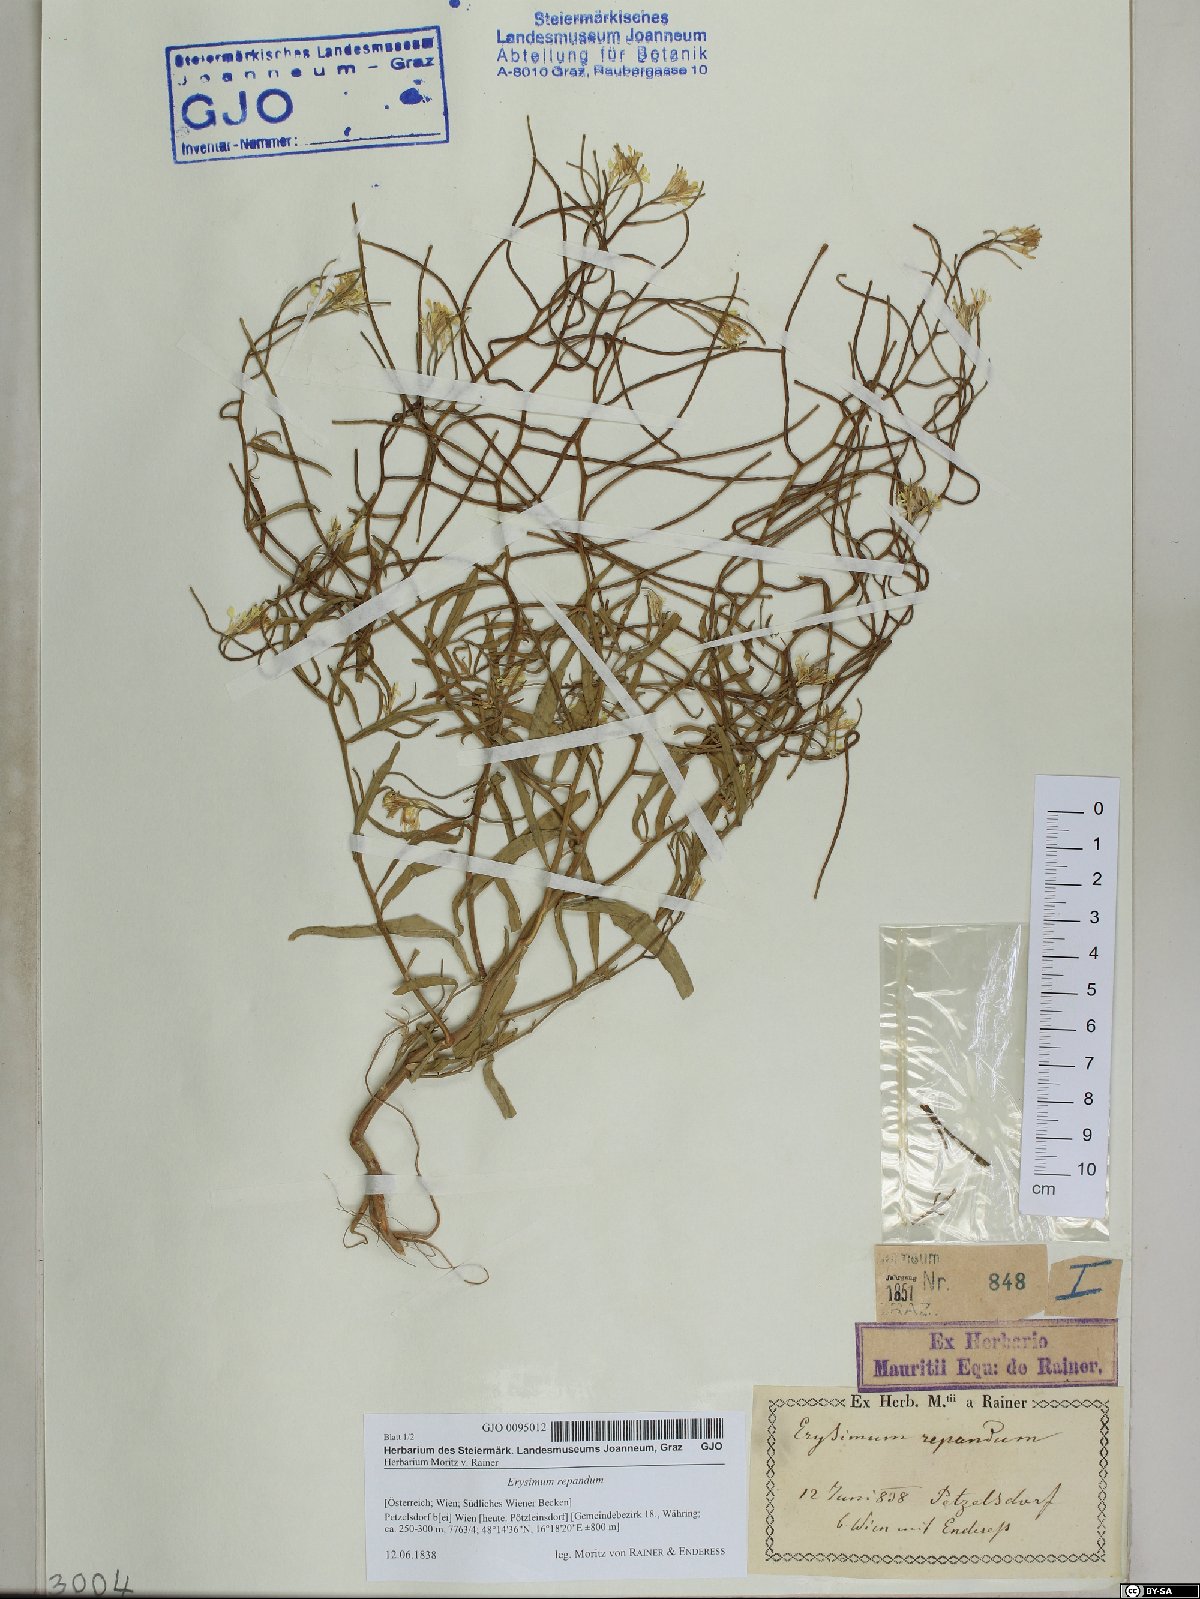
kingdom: Plantae
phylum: Tracheophyta
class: Magnoliopsida
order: Brassicales
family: Brassicaceae
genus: Erysimum
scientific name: Erysimum repandum
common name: Spreading wallflower
